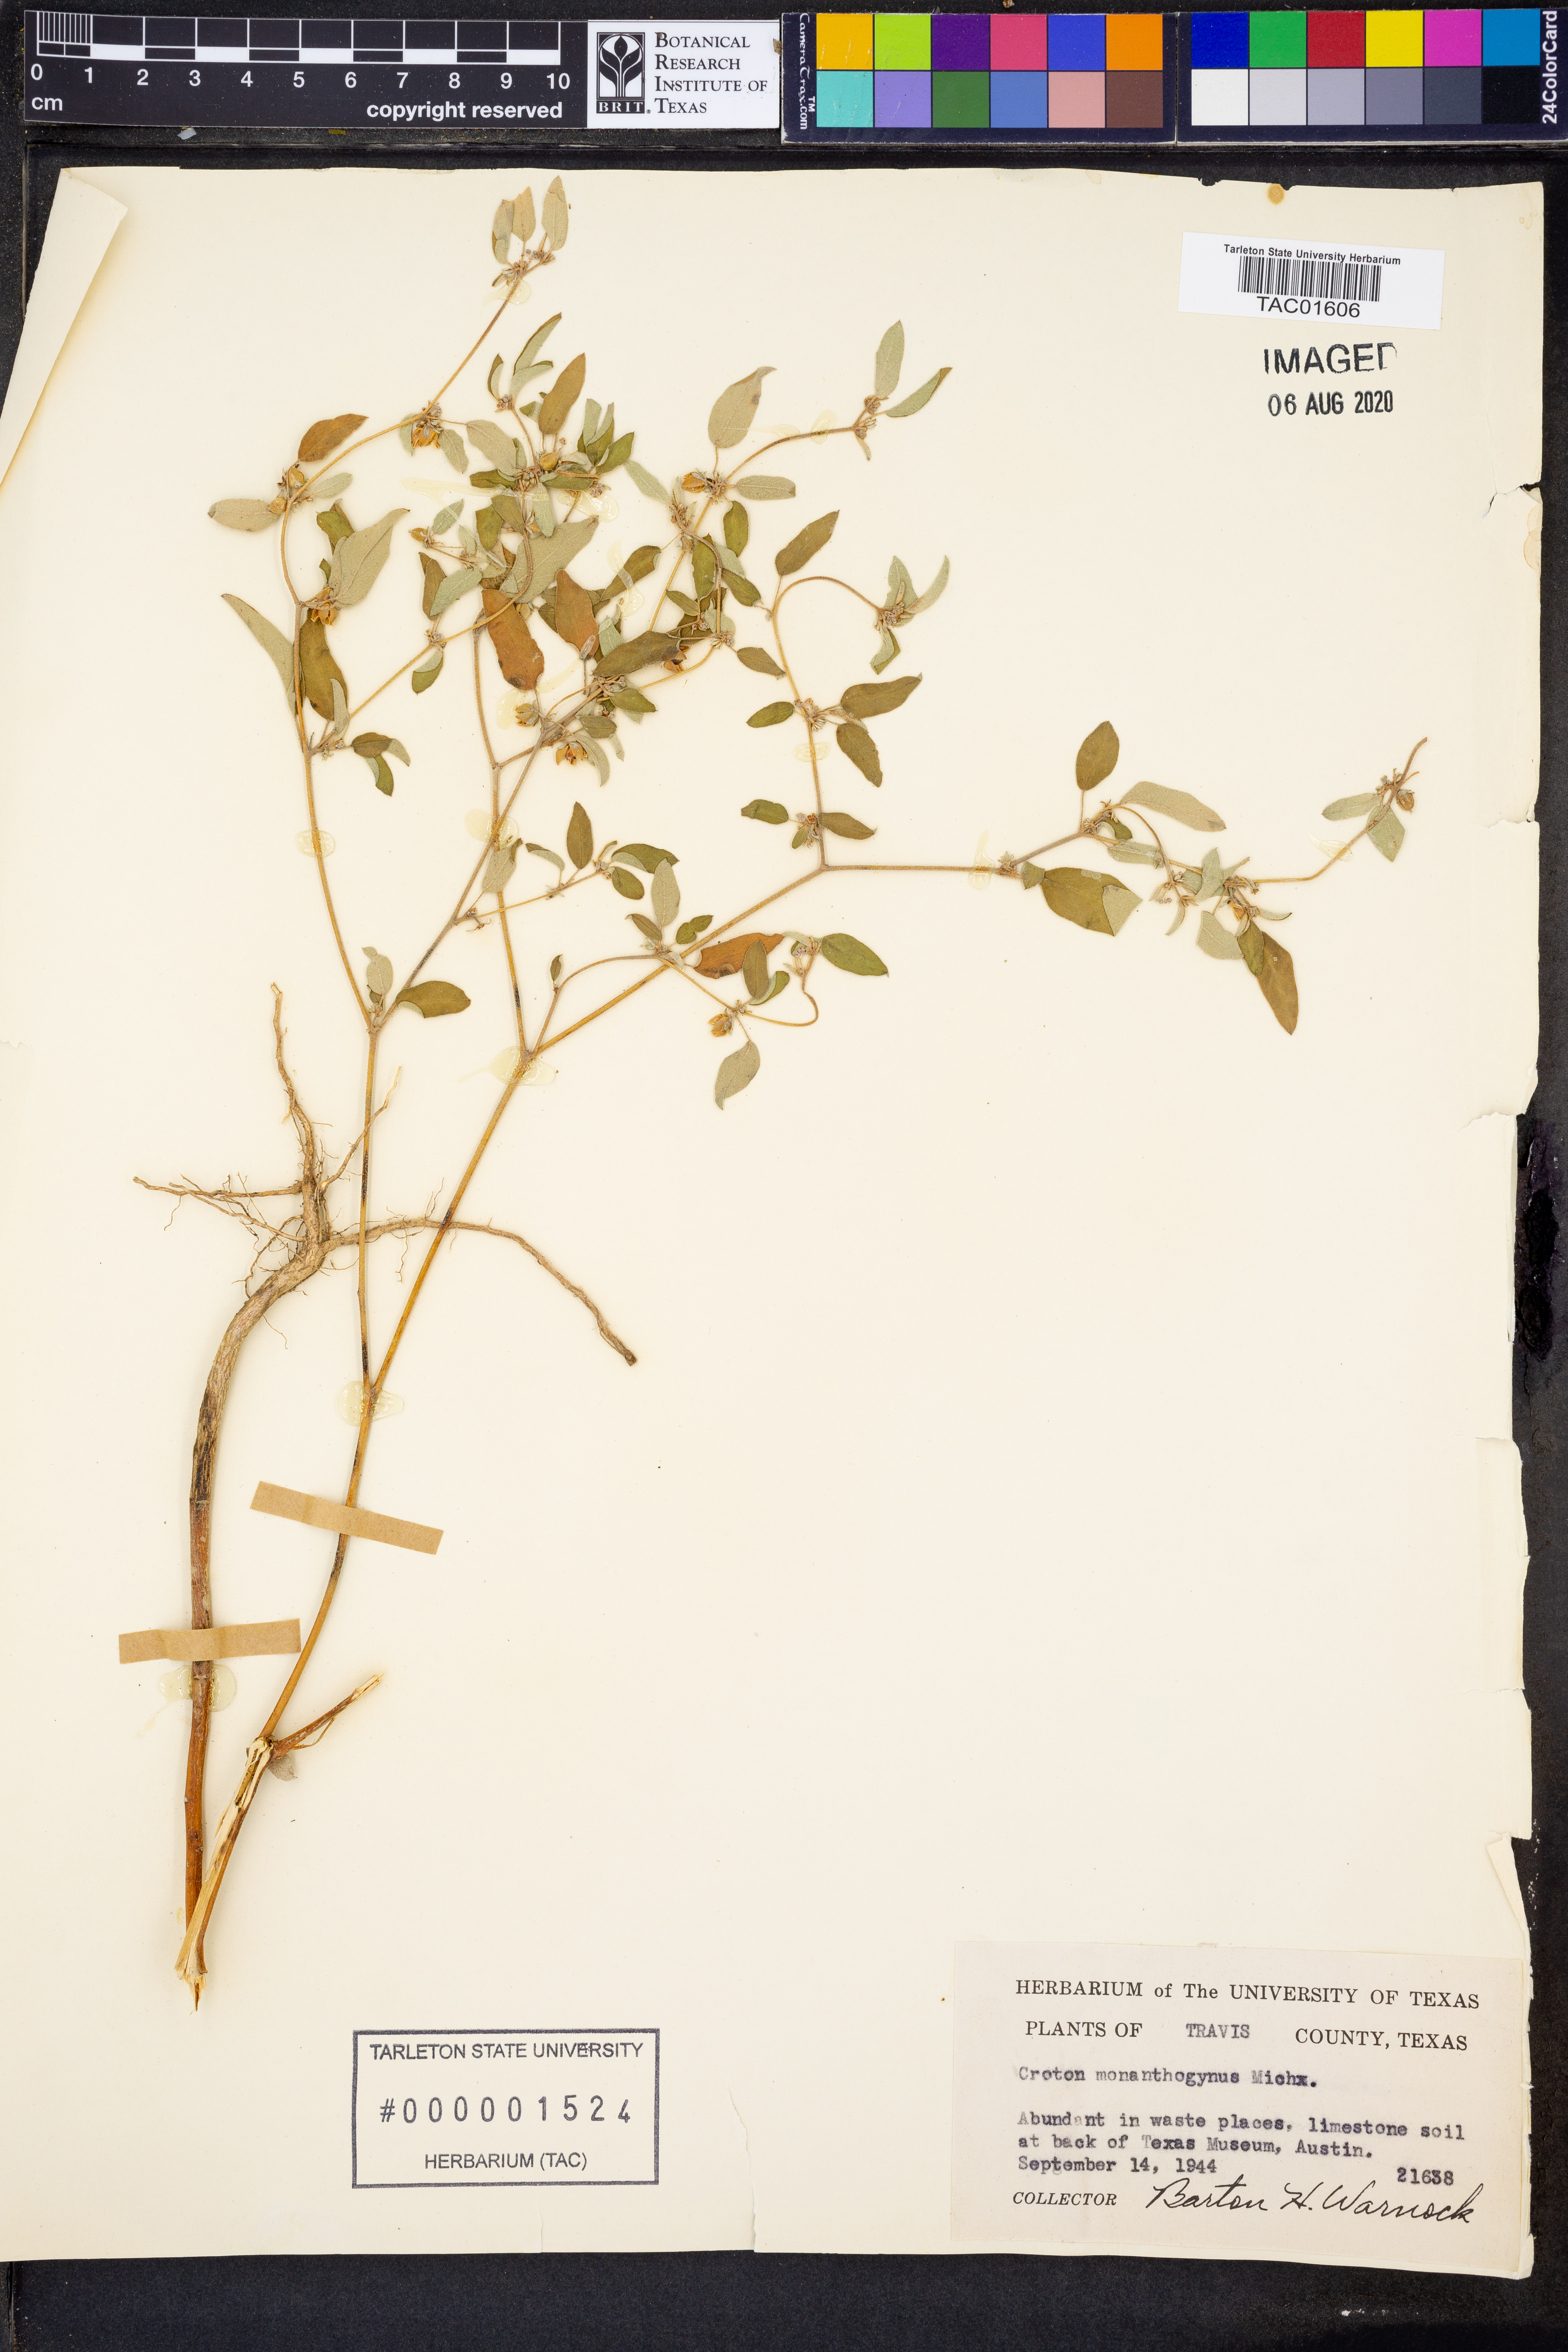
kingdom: Plantae
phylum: Tracheophyta
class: Magnoliopsida
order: Malpighiales
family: Euphorbiaceae
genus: Croton
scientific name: Croton monanthogynus
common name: One-seed croton
